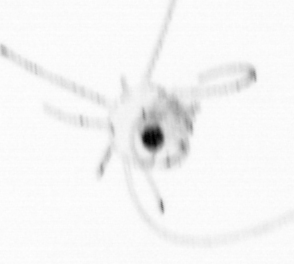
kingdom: Chromista
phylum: Ochrophyta
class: Bacillariophyceae
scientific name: Bacillariophyceae
